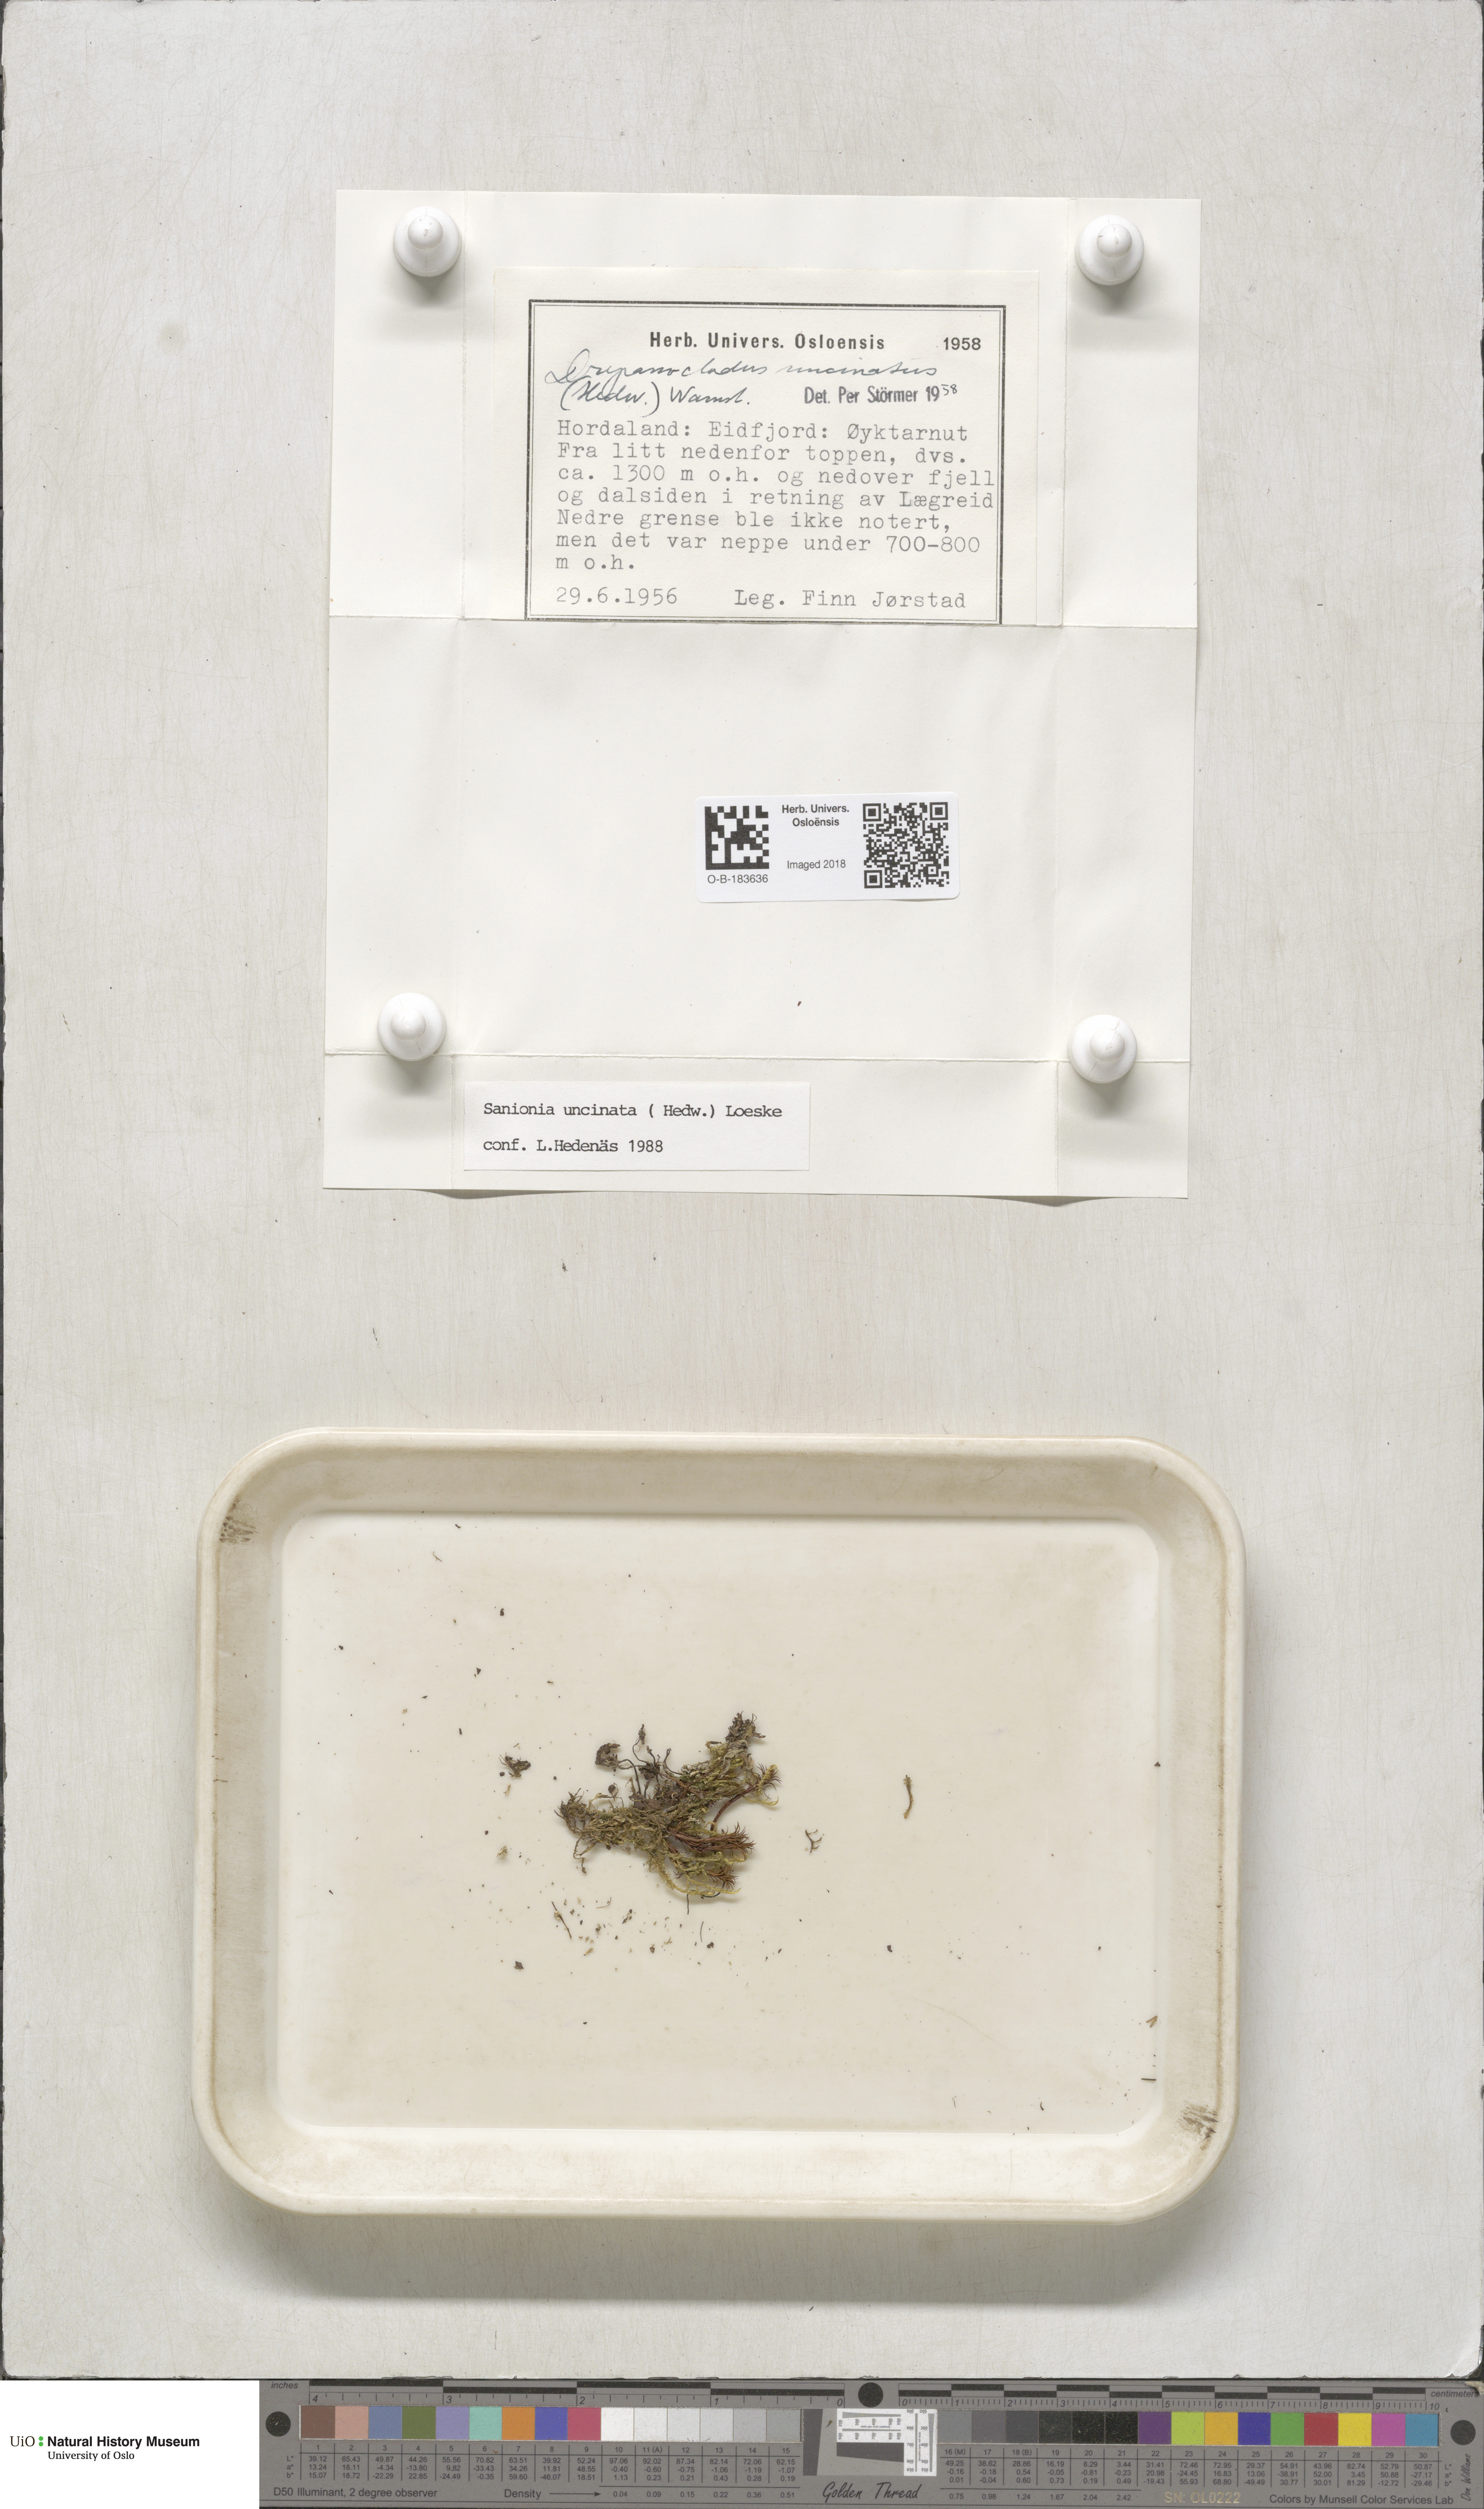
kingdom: Plantae
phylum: Bryophyta
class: Bryopsida
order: Hypnales
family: Scorpidiaceae
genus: Sanionia
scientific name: Sanionia uncinata
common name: Sickle moss
